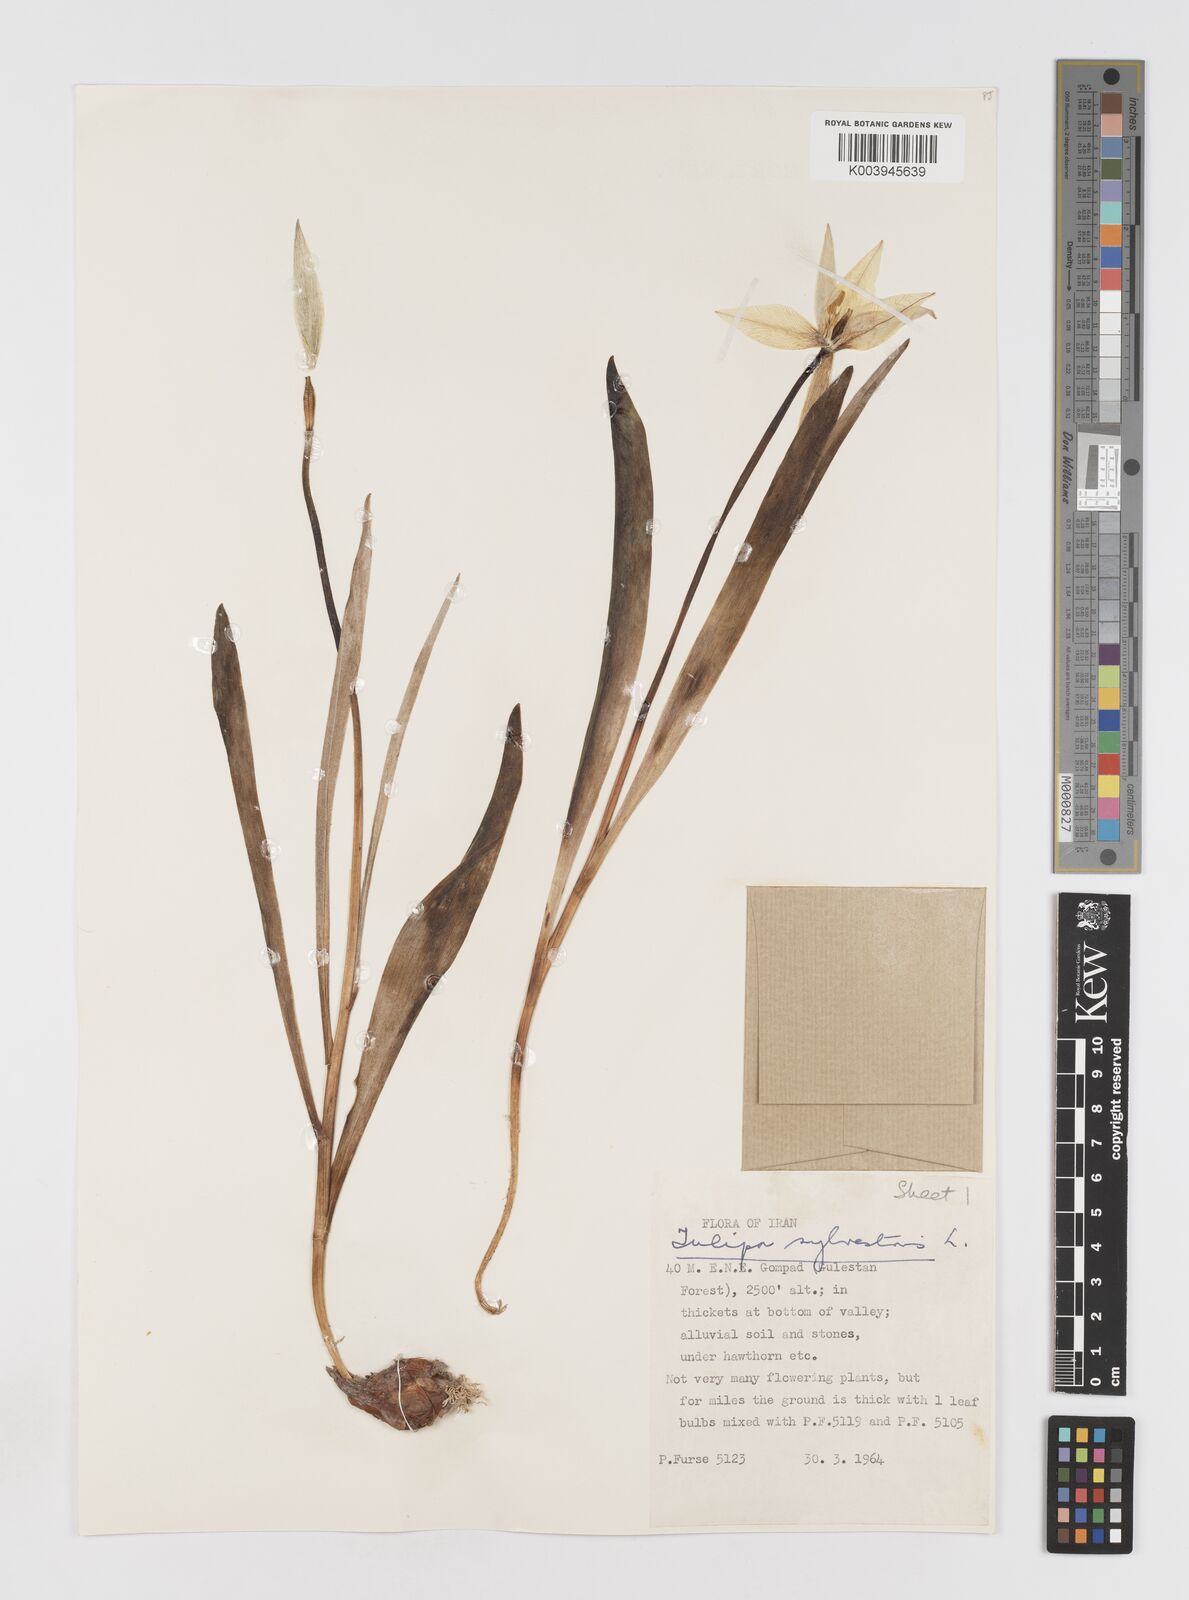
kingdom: Plantae
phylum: Tracheophyta
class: Liliopsida
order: Liliales
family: Liliaceae
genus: Tulipa
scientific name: Tulipa sylvestris
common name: Wild tulip
